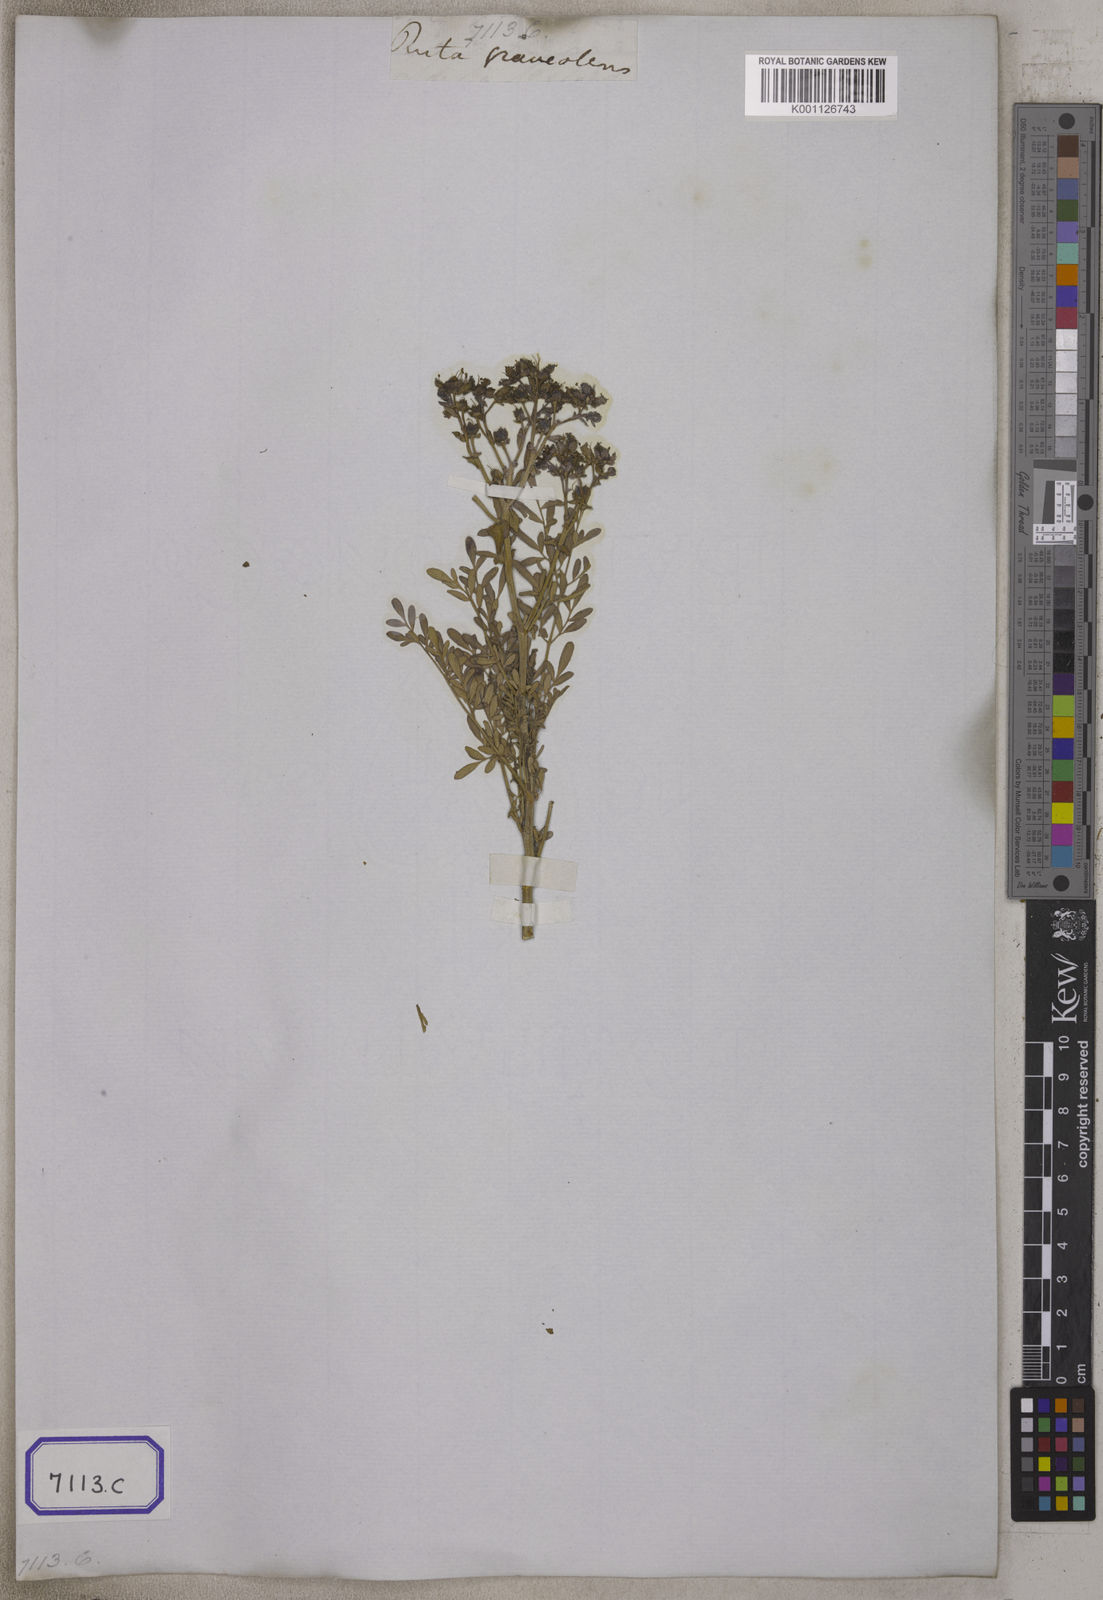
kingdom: Plantae
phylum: Tracheophyta
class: Magnoliopsida
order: Sapindales
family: Rutaceae
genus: Ruta
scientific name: Ruta
